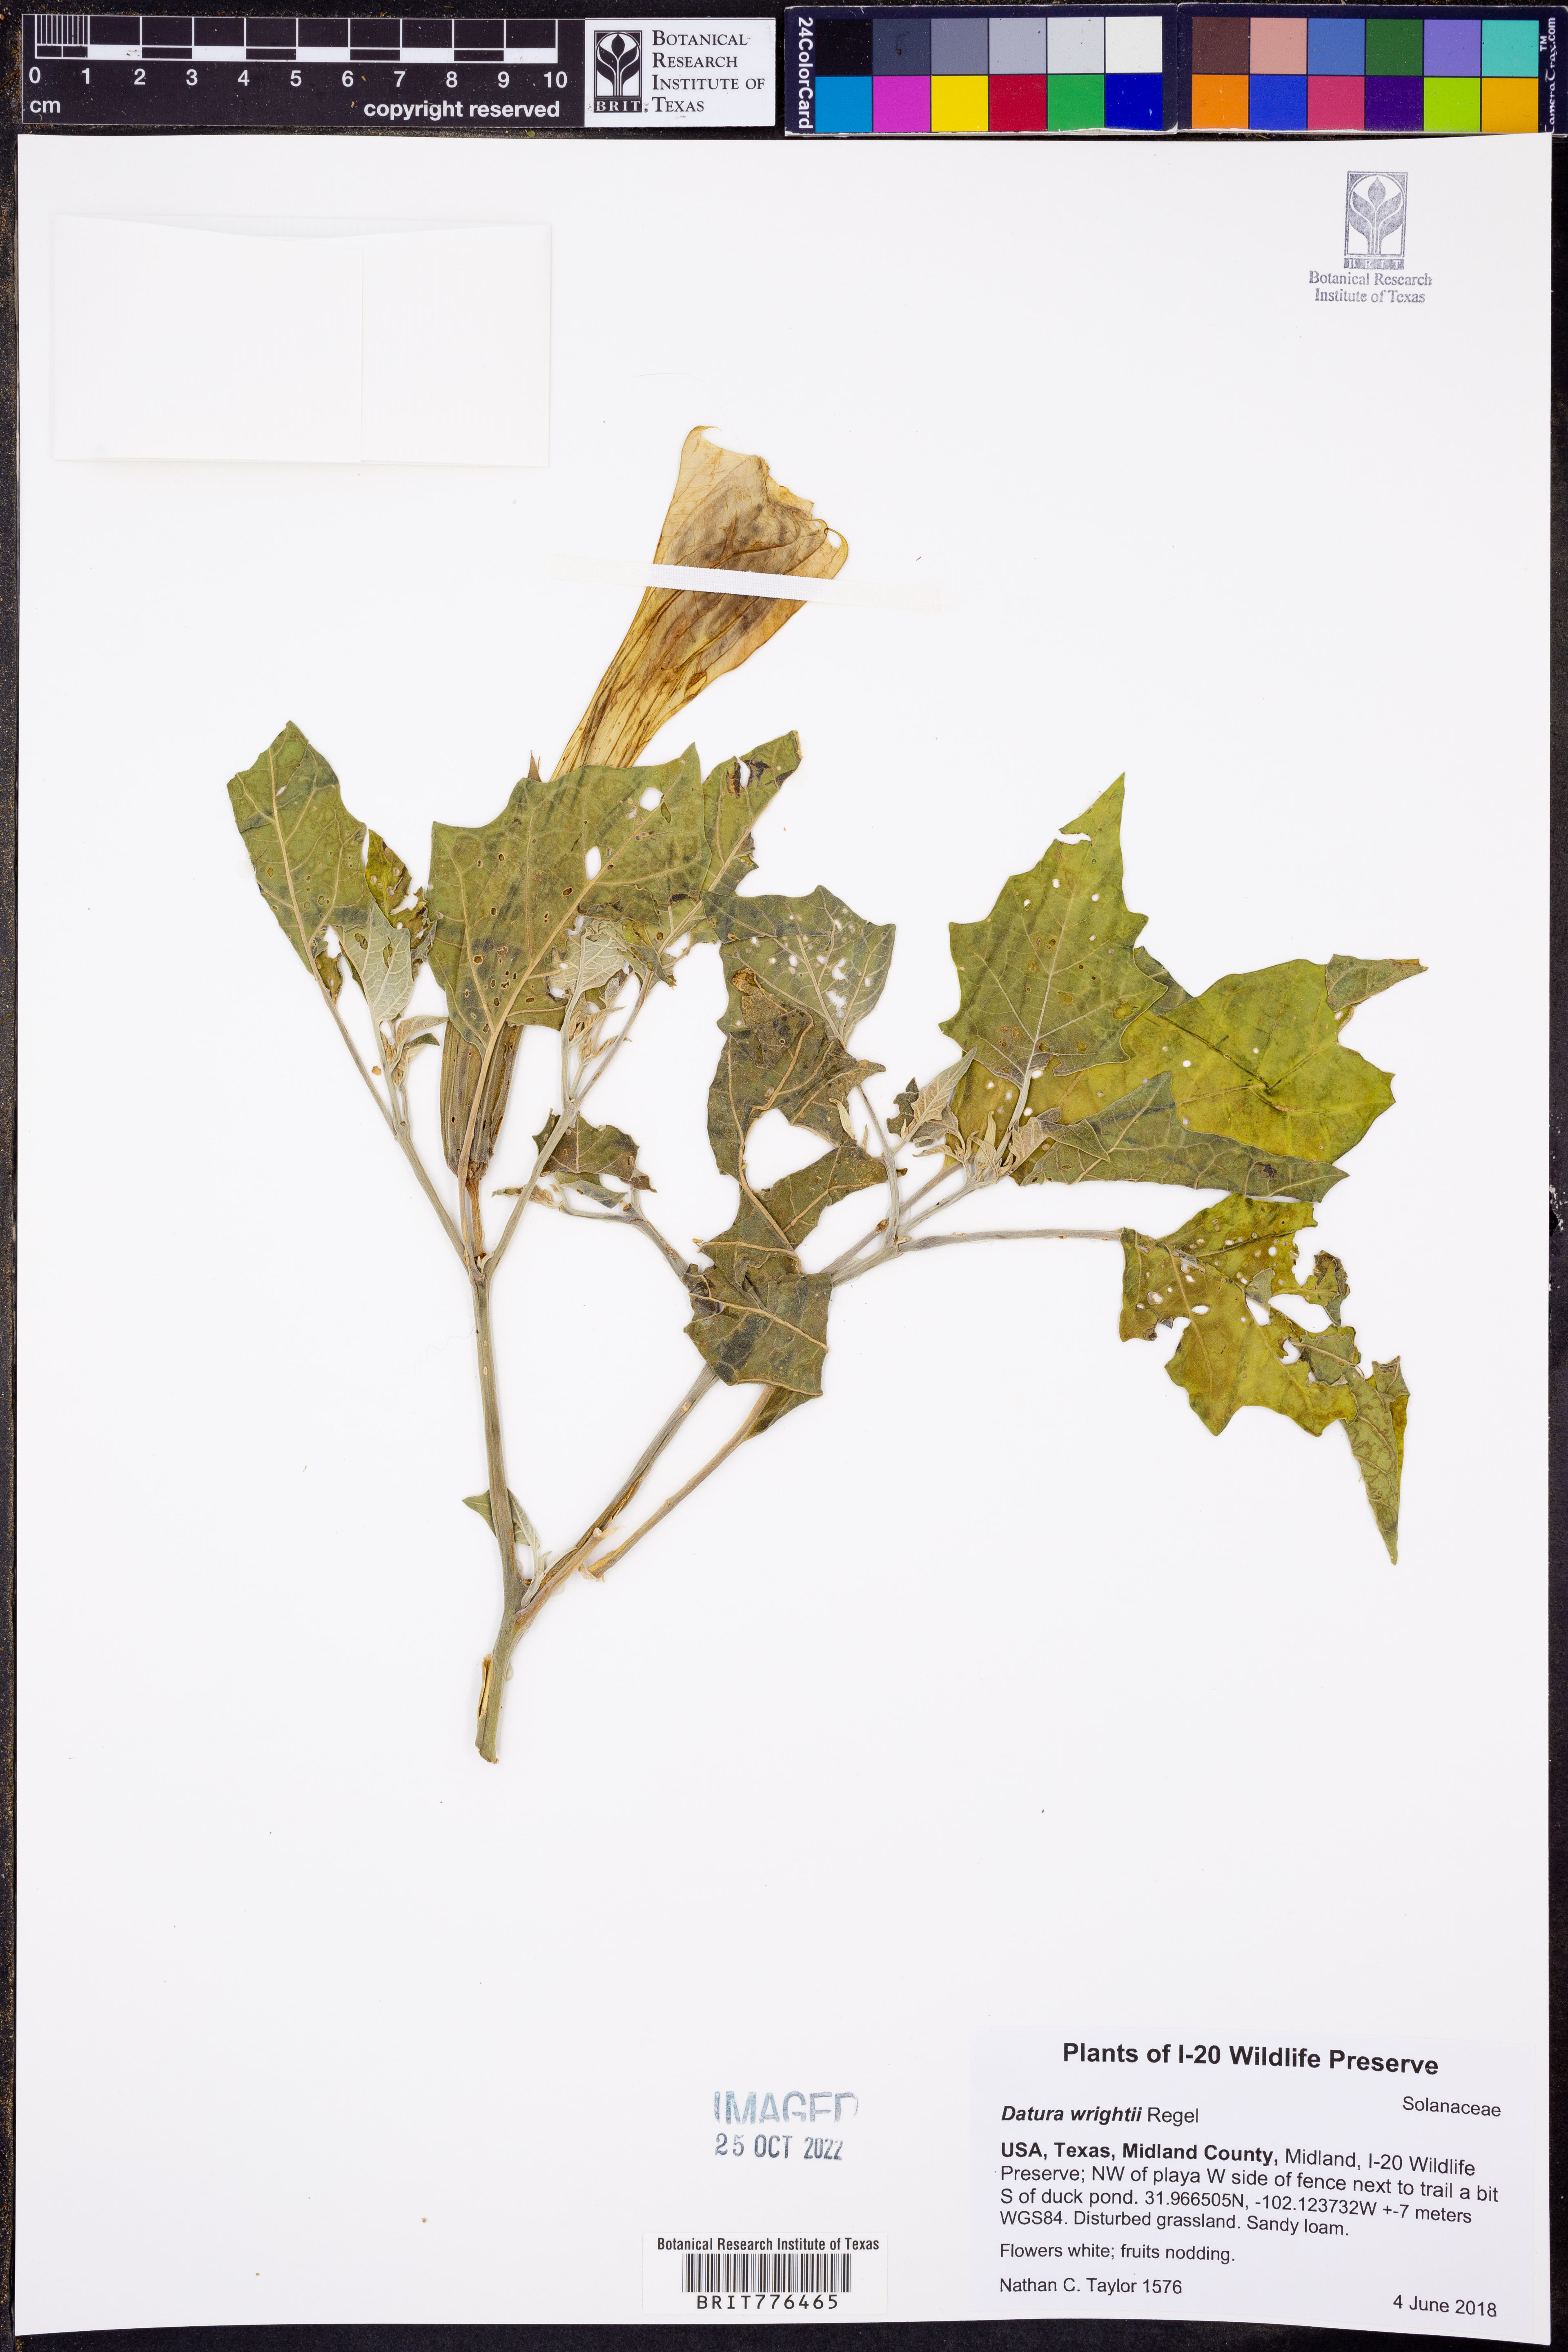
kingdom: Plantae
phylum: Tracheophyta
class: Magnoliopsida
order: Solanales
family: Solanaceae
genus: Datura
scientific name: Datura wrightii
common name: Sacred thorn-apple
